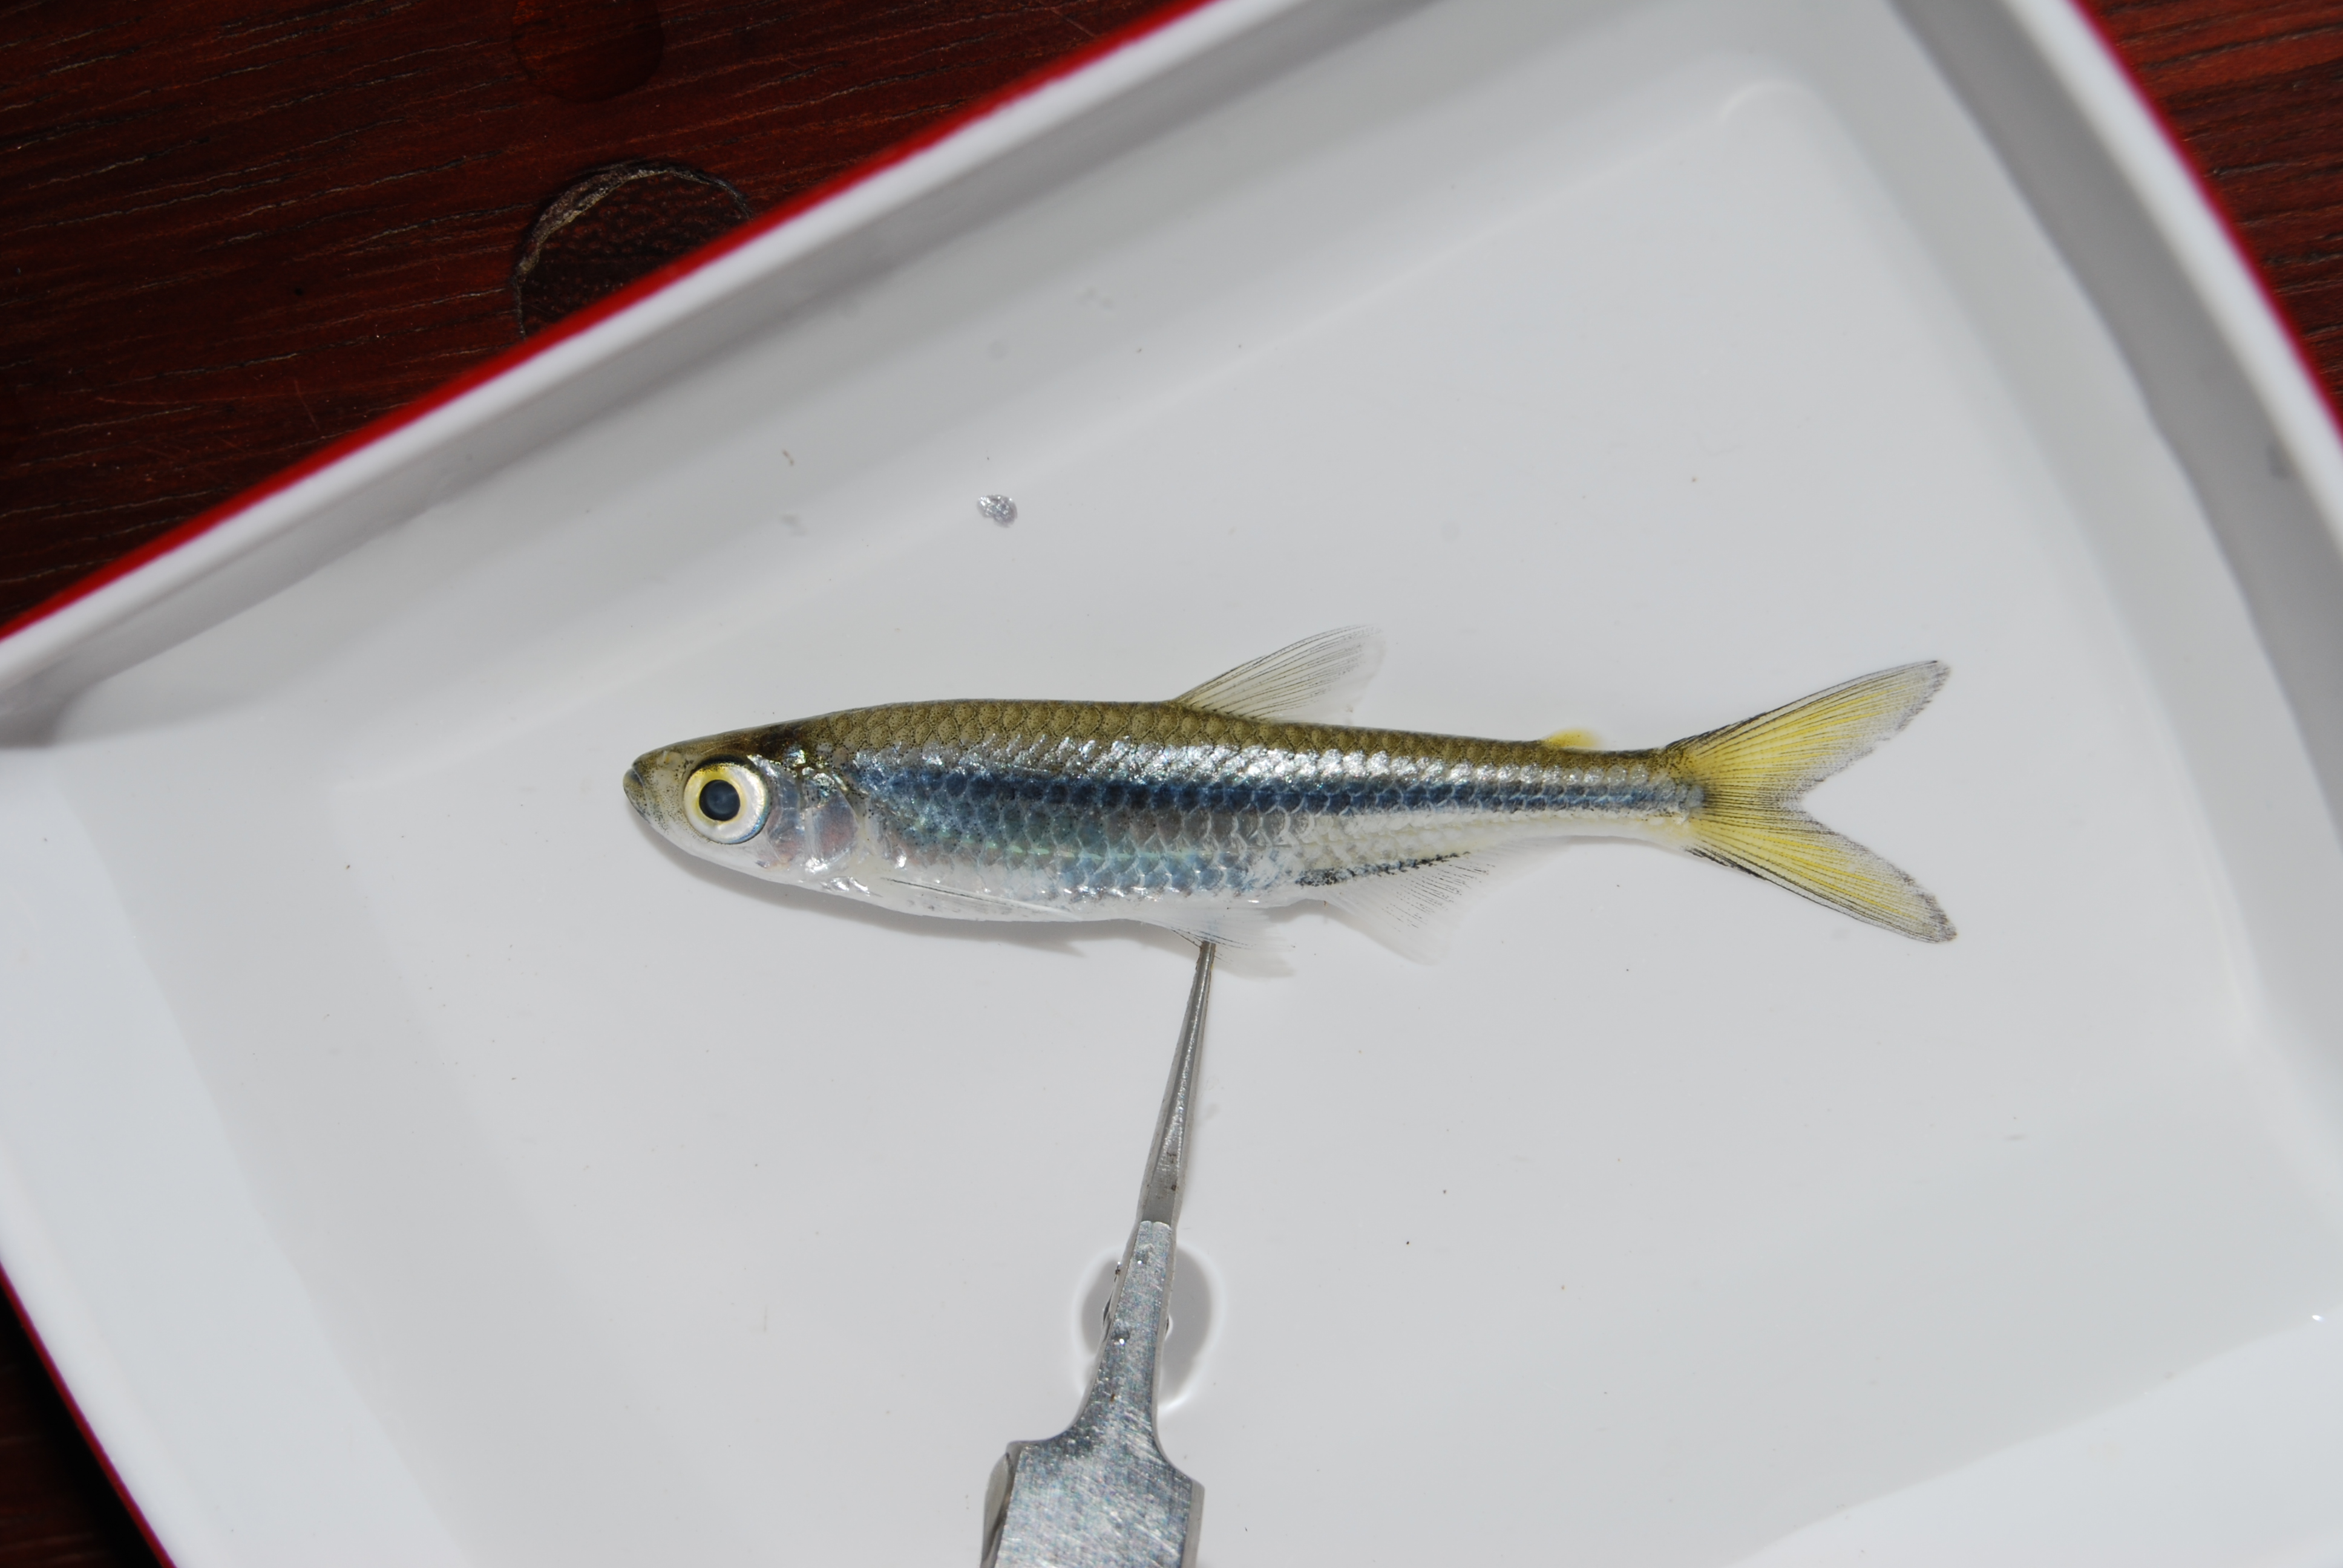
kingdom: Animalia
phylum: Chordata
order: Characiformes
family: Alestidae
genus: Rhabdalestes
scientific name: Rhabdalestes rhodesiensis
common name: Slender robber
